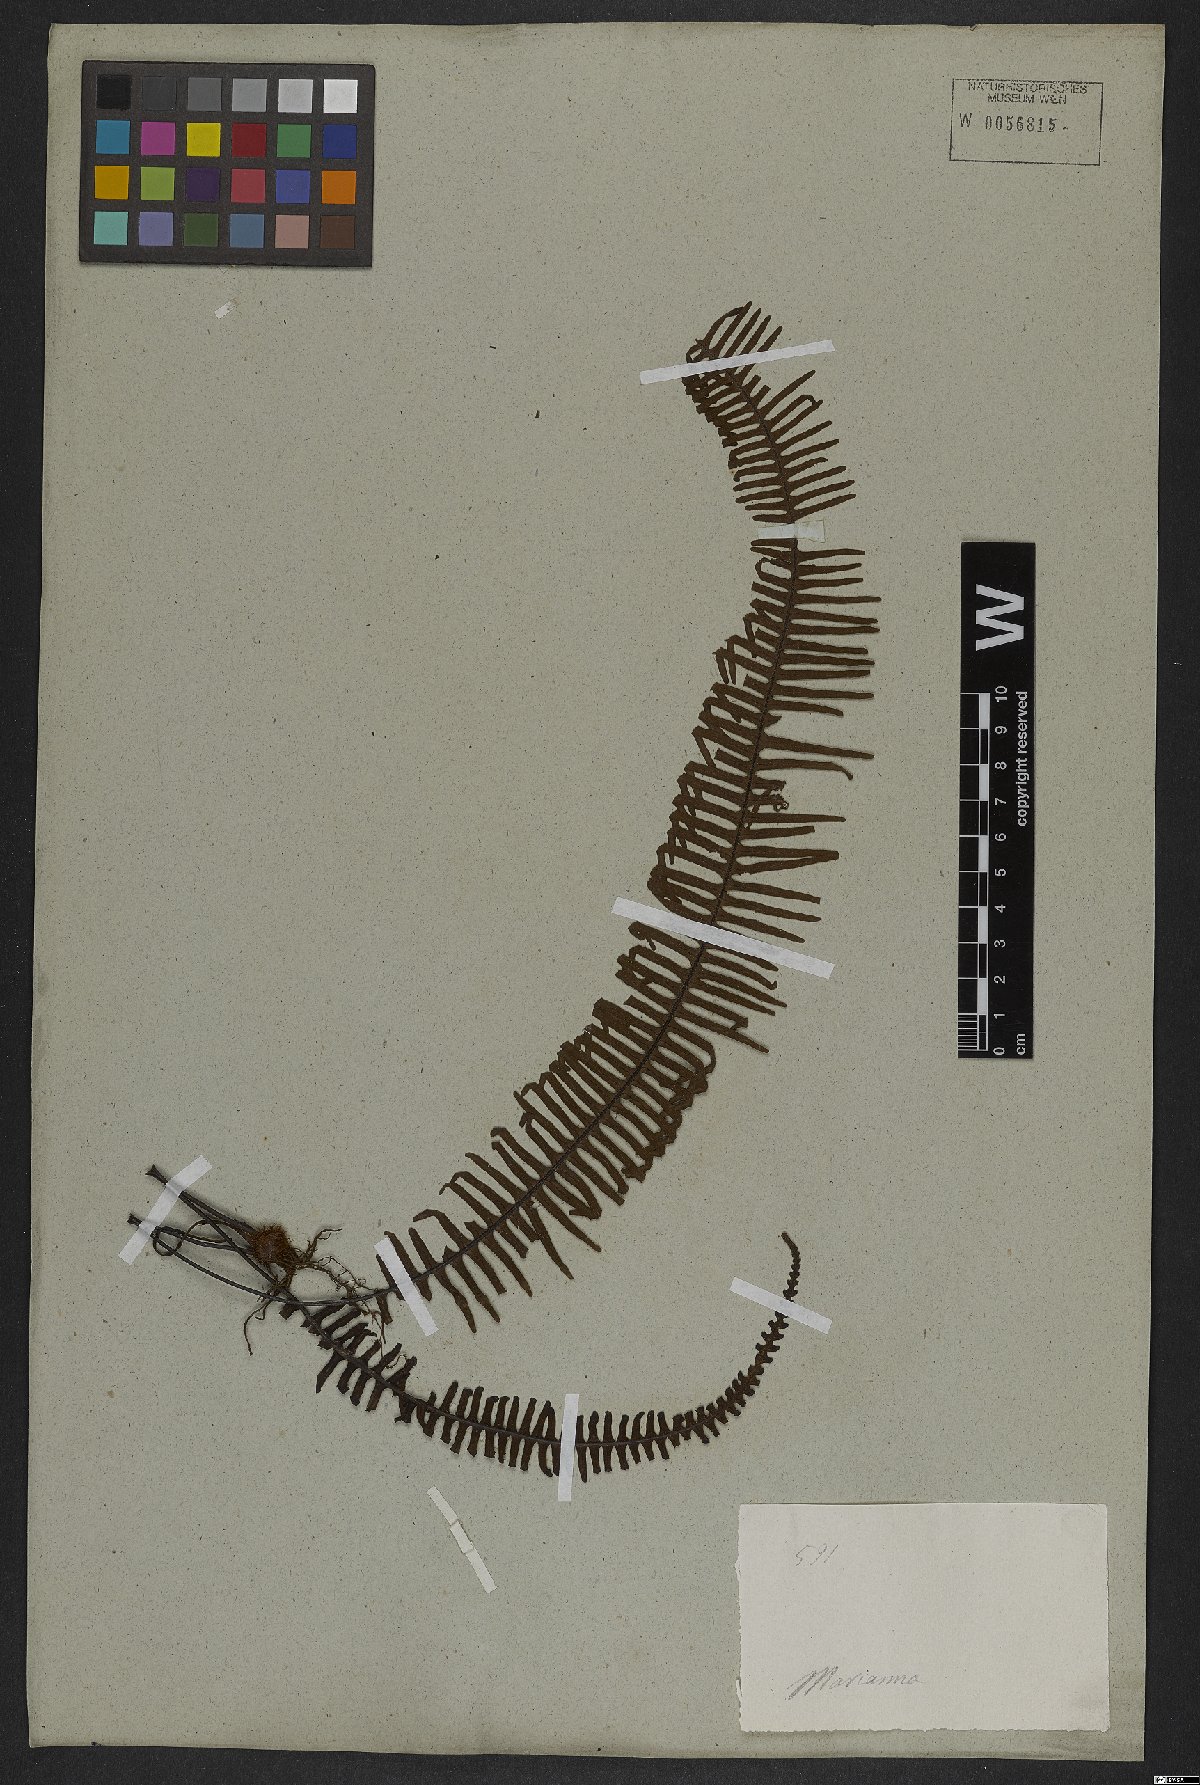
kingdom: Plantae
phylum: Tracheophyta
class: Polypodiopsida
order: Polypodiales
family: Polypodiaceae
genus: Polypodium
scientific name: Polypodium
